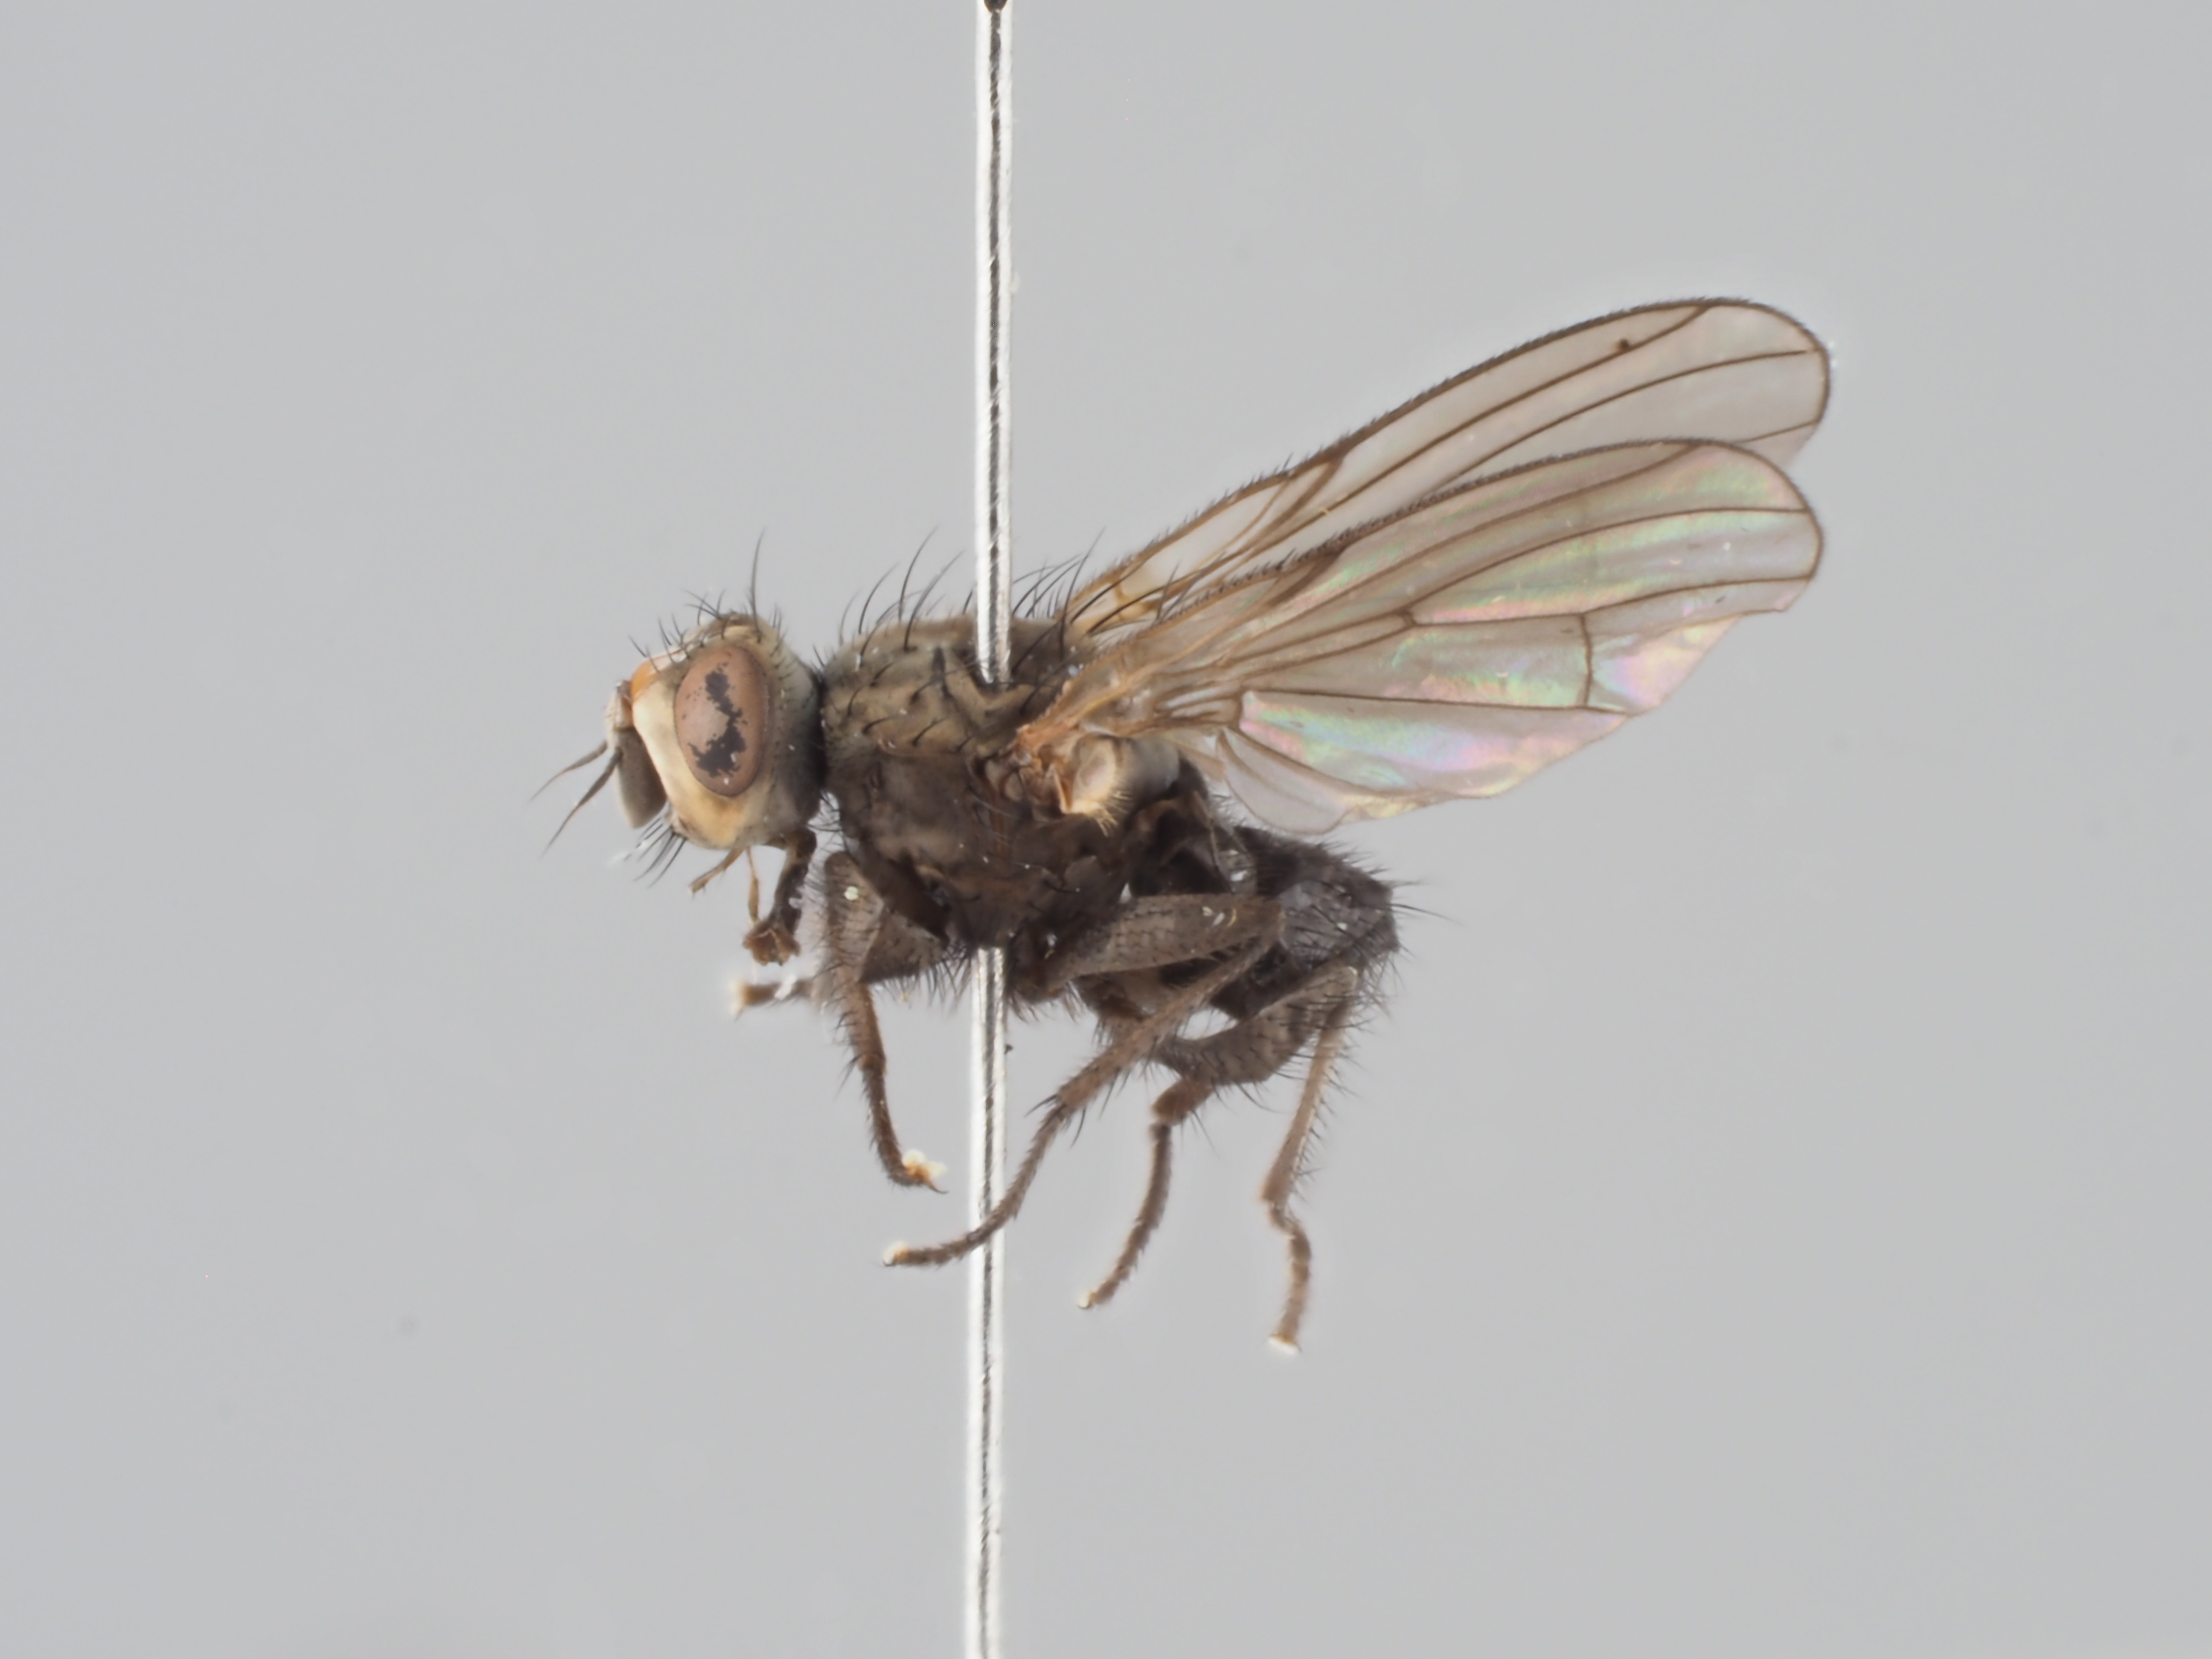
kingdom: Animalia
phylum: Arthropoda
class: Insecta
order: Diptera
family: Anthomyiidae
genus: Myopina
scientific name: Myopina myopina
